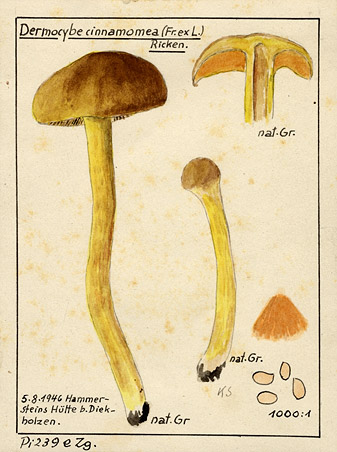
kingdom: Fungi
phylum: Basidiomycota
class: Agaricomycetes
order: Agaricales
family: Cortinariaceae
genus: Cortinarius
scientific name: Cortinarius cinnamomeus
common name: Cinnamon webcap
